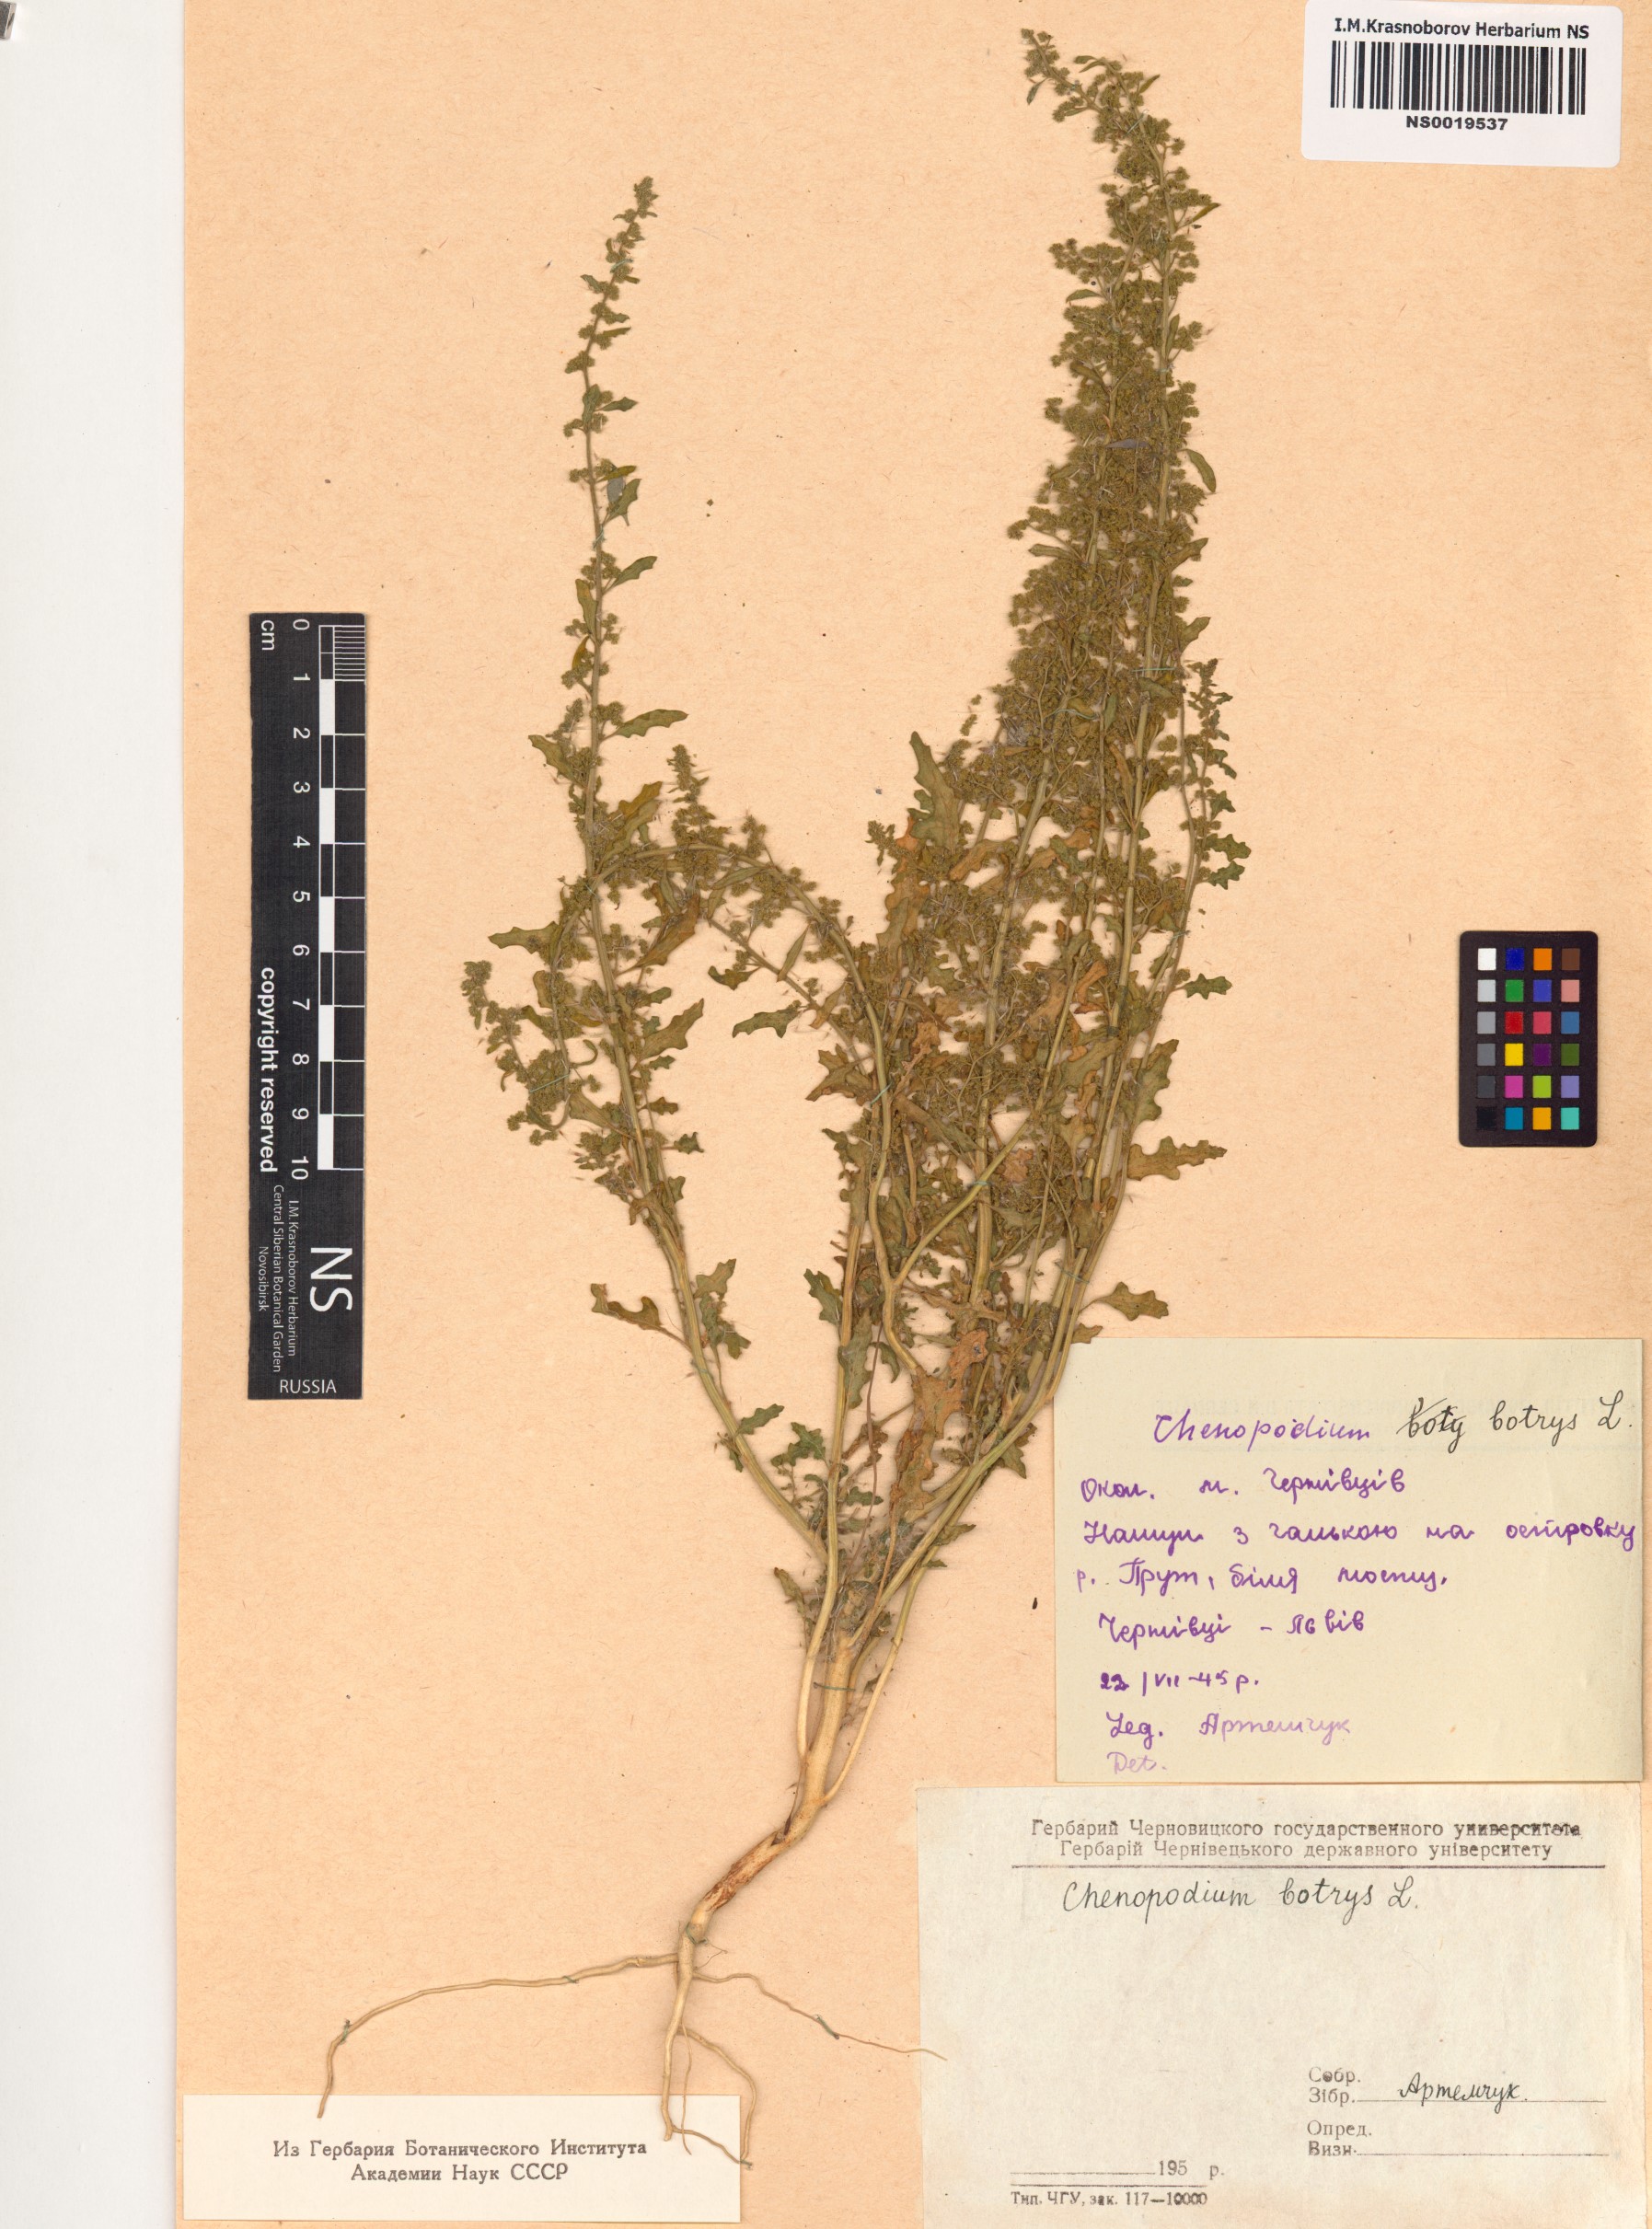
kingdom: Plantae
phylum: Tracheophyta
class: Magnoliopsida
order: Caryophyllales
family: Amaranthaceae
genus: Dysphania
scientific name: Dysphania botrys
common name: Feather-geranium
